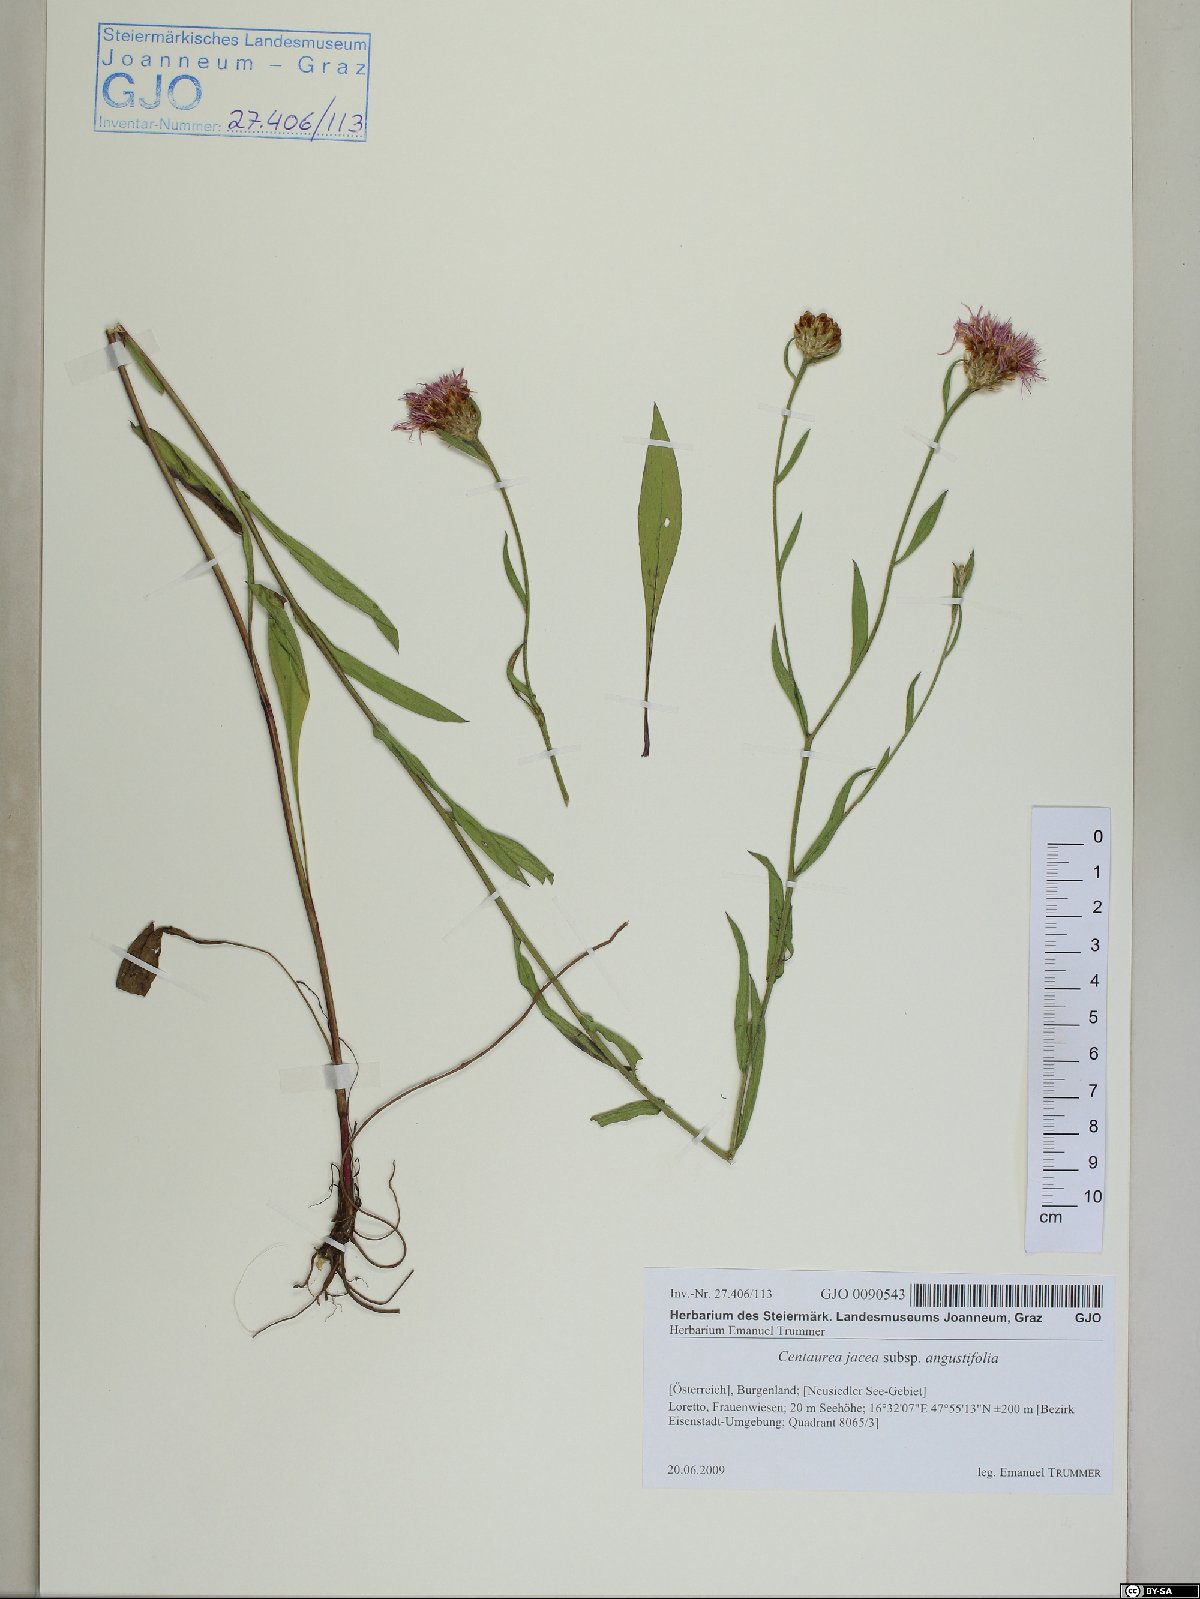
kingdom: Plantae
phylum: Tracheophyta
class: Magnoliopsida
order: Asterales
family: Asteraceae
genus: Centaurea
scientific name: Centaurea pannonica
